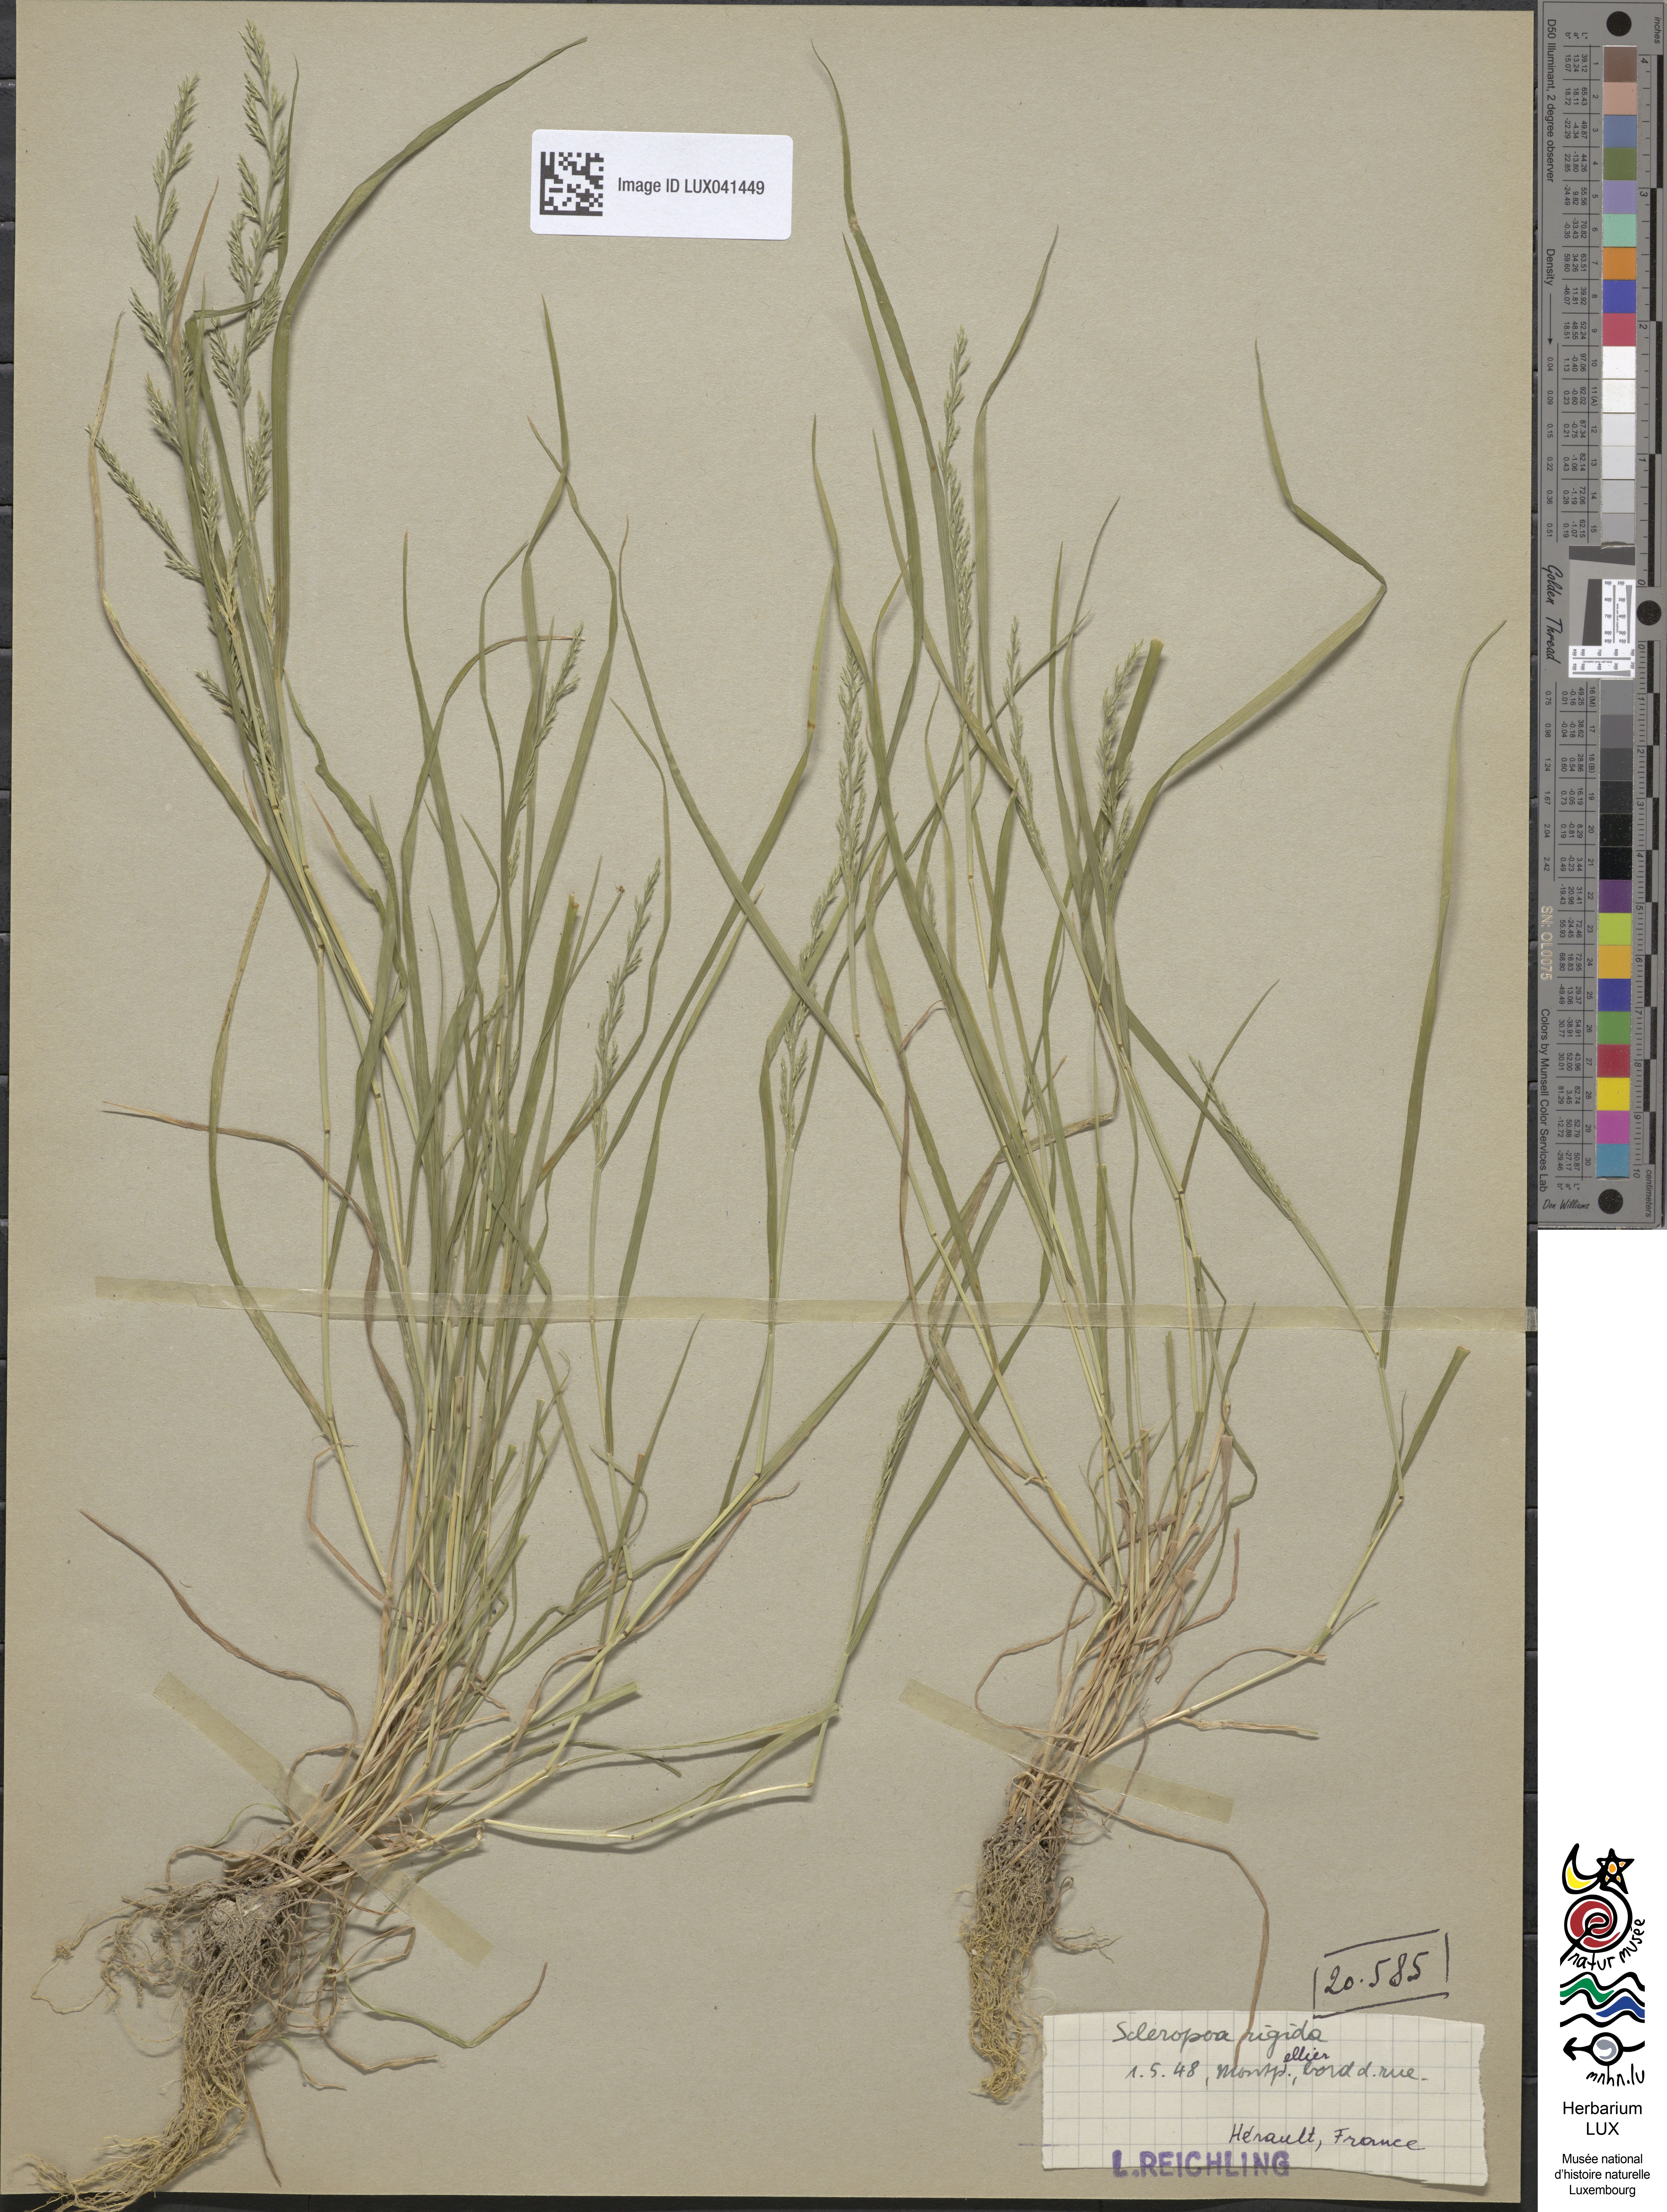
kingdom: Plantae
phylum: Tracheophyta
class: Liliopsida
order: Poales
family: Poaceae
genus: Catapodium
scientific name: Catapodium rigidum
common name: Fern-grass
